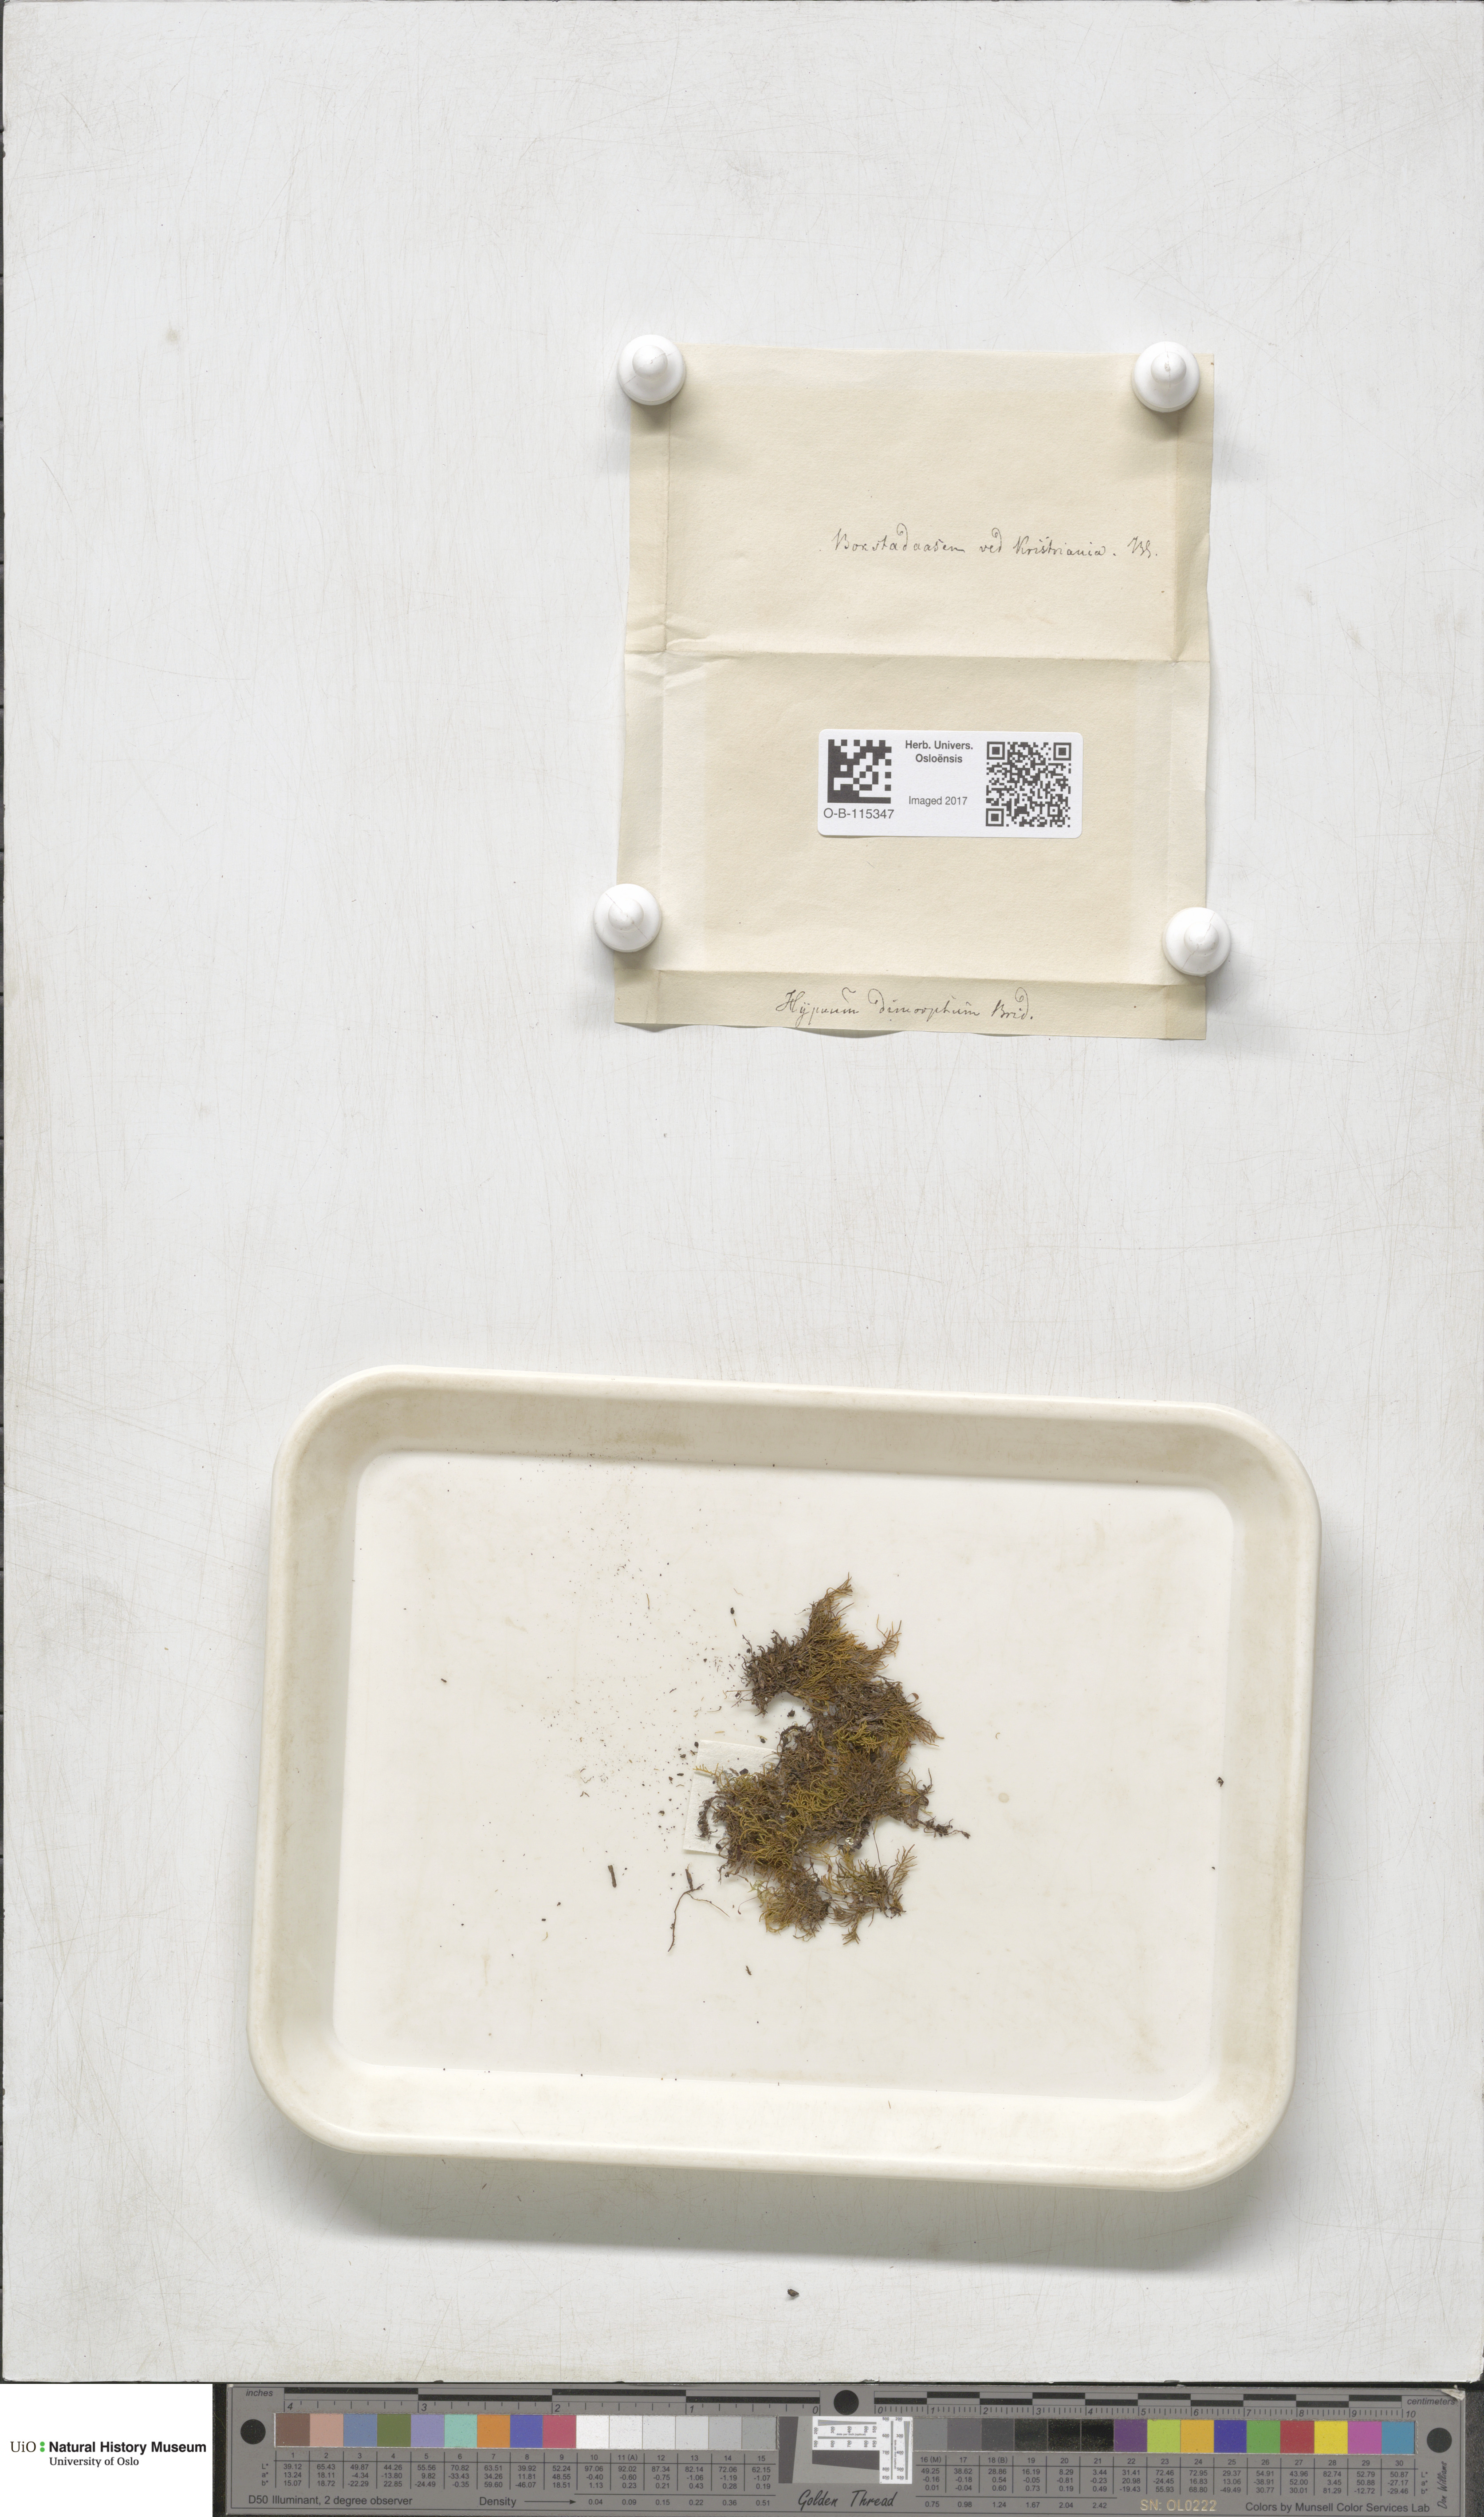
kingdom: Plantae
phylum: Bryophyta
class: Bryopsida
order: Hypnales
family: Heterocladiellaceae
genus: Heterocladiella
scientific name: Heterocladiella dimorpha
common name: Dimorphous tamarisk-moss
